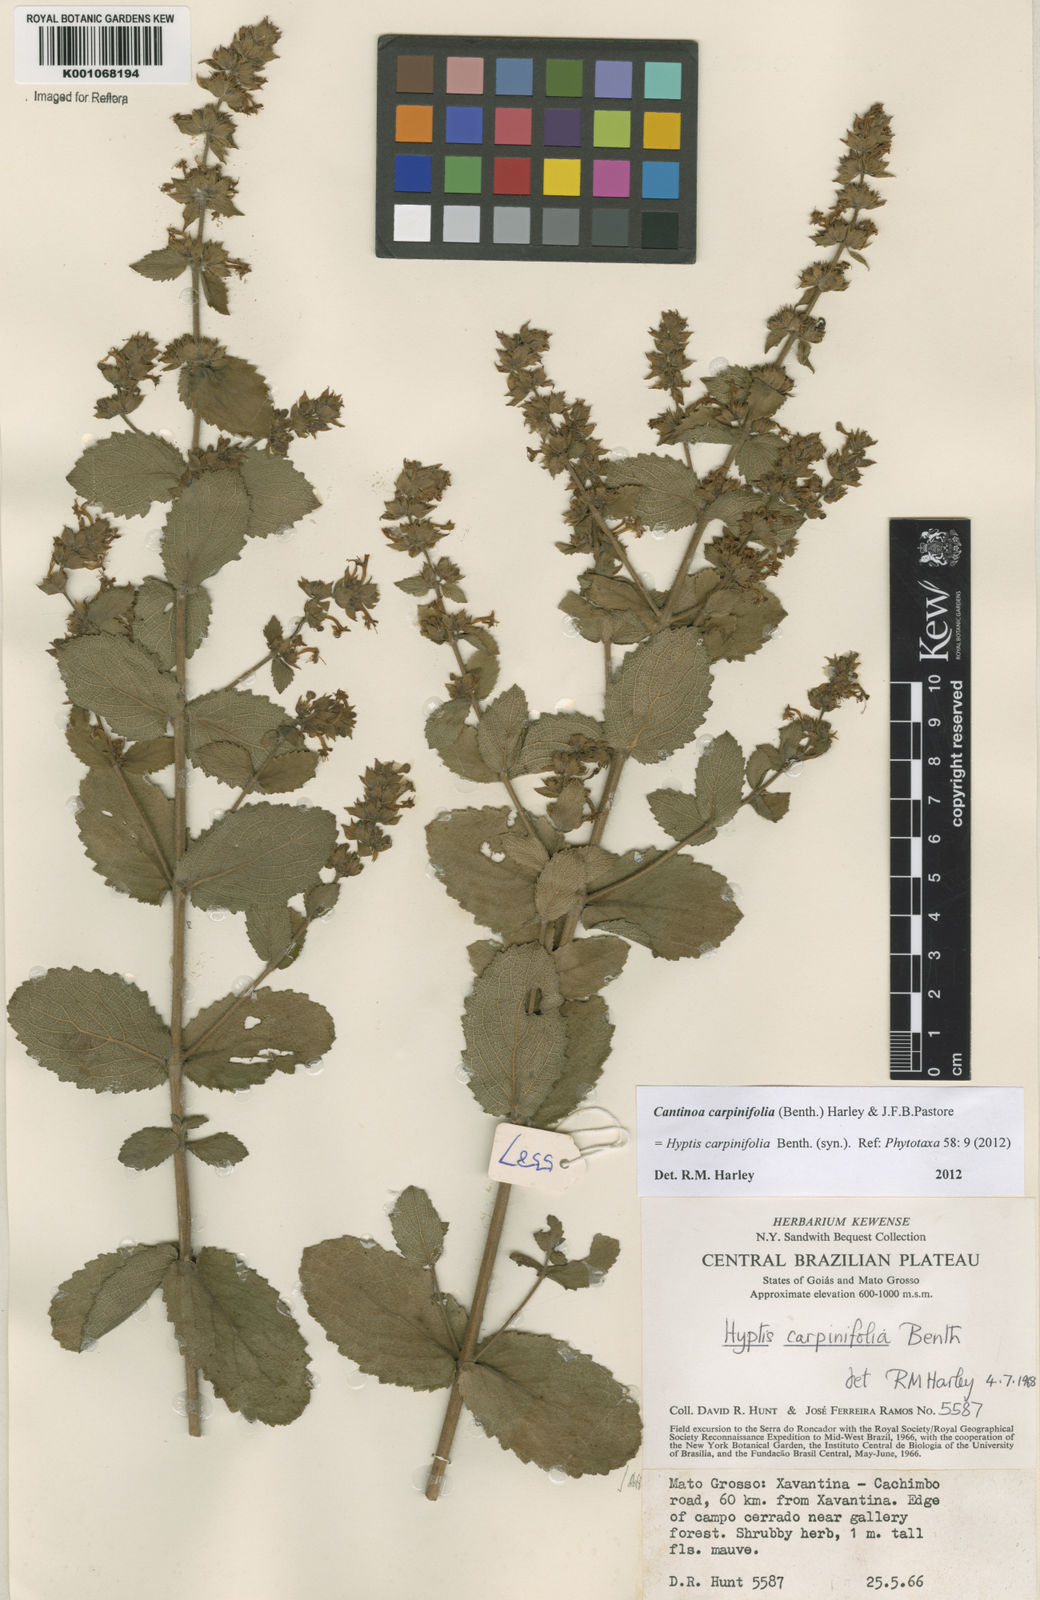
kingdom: Plantae
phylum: Tracheophyta
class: Magnoliopsida
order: Lamiales
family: Lamiaceae
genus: Cantinoa
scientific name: Cantinoa carpinifolia
